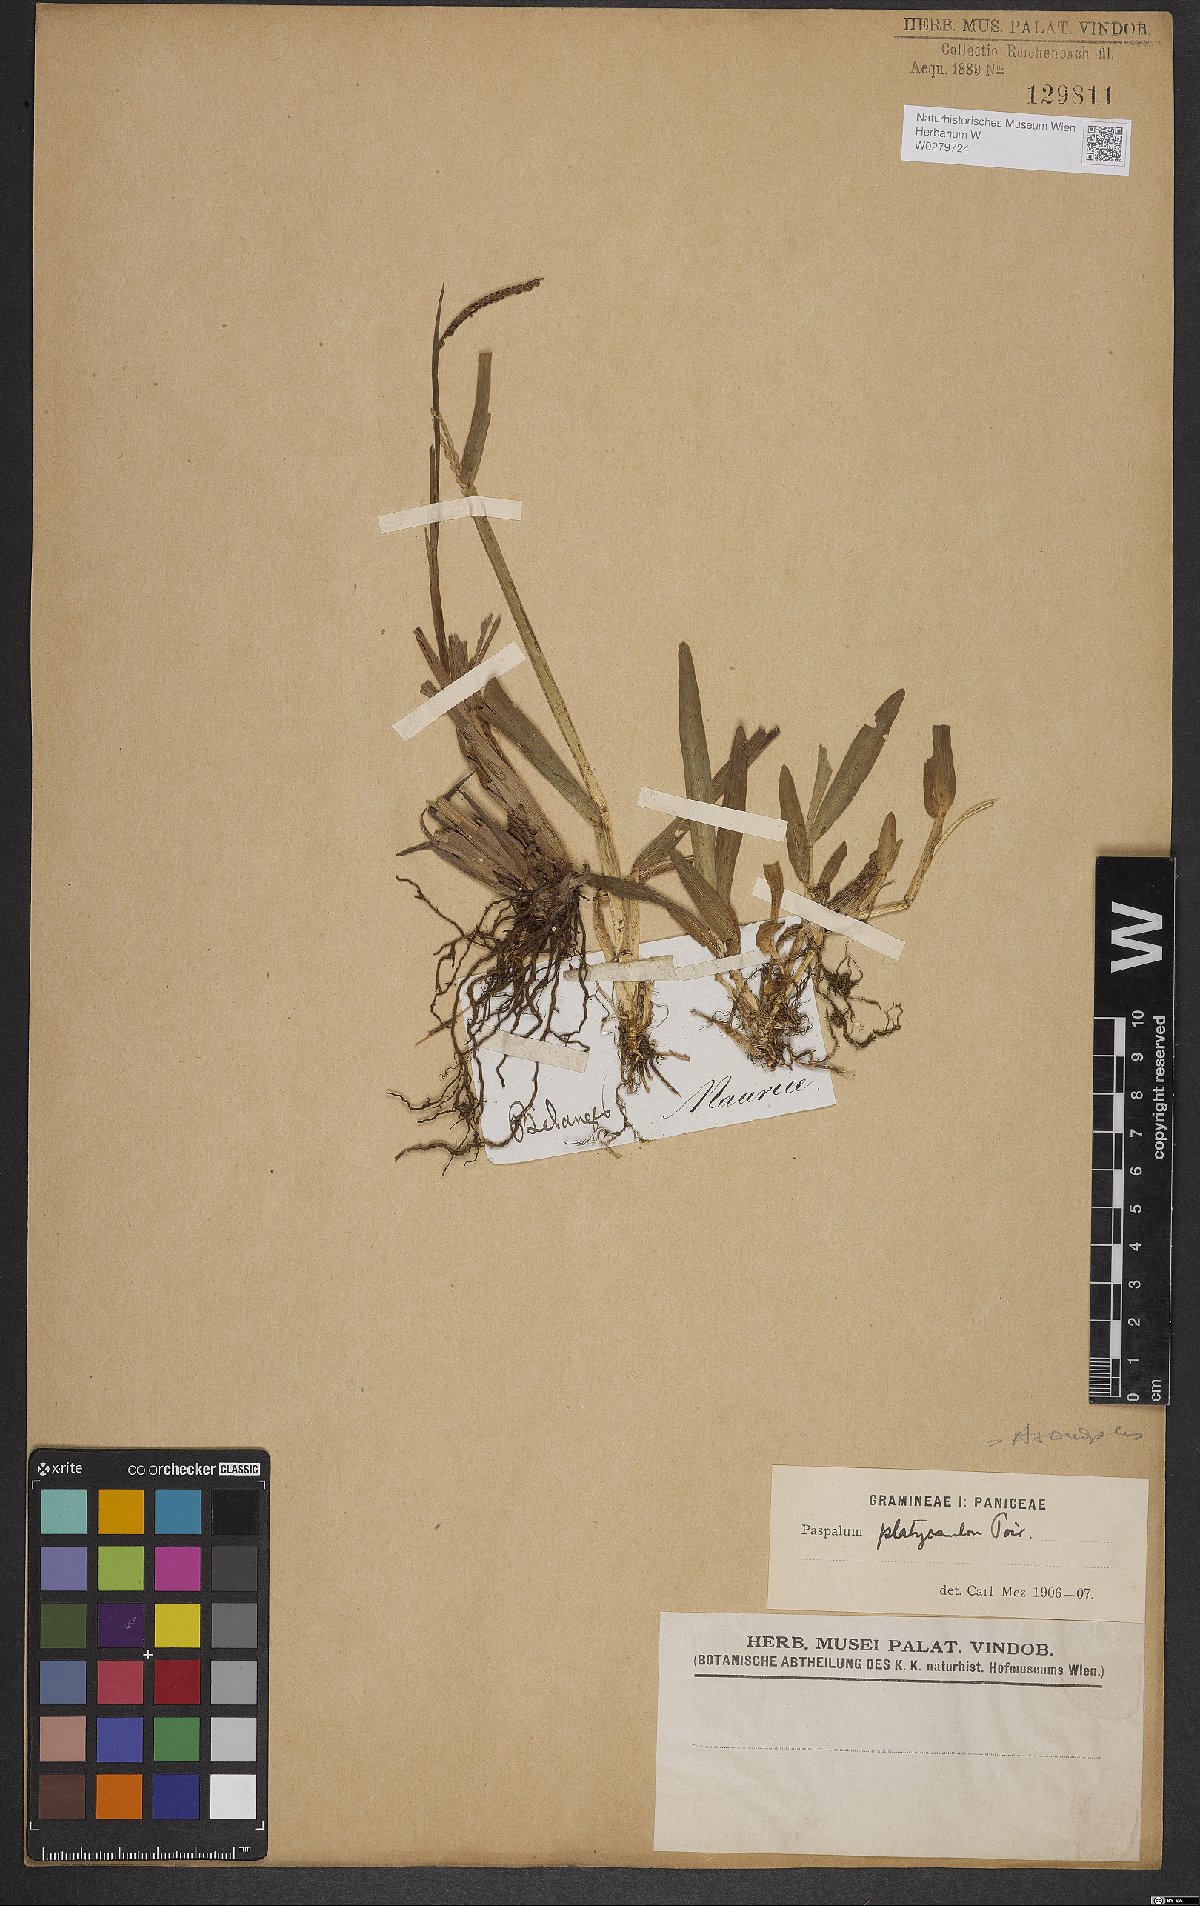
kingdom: Plantae
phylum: Tracheophyta
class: Liliopsida
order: Poales
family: Poaceae
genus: Axonopus
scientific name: Axonopus compressus
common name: American carpet grass
